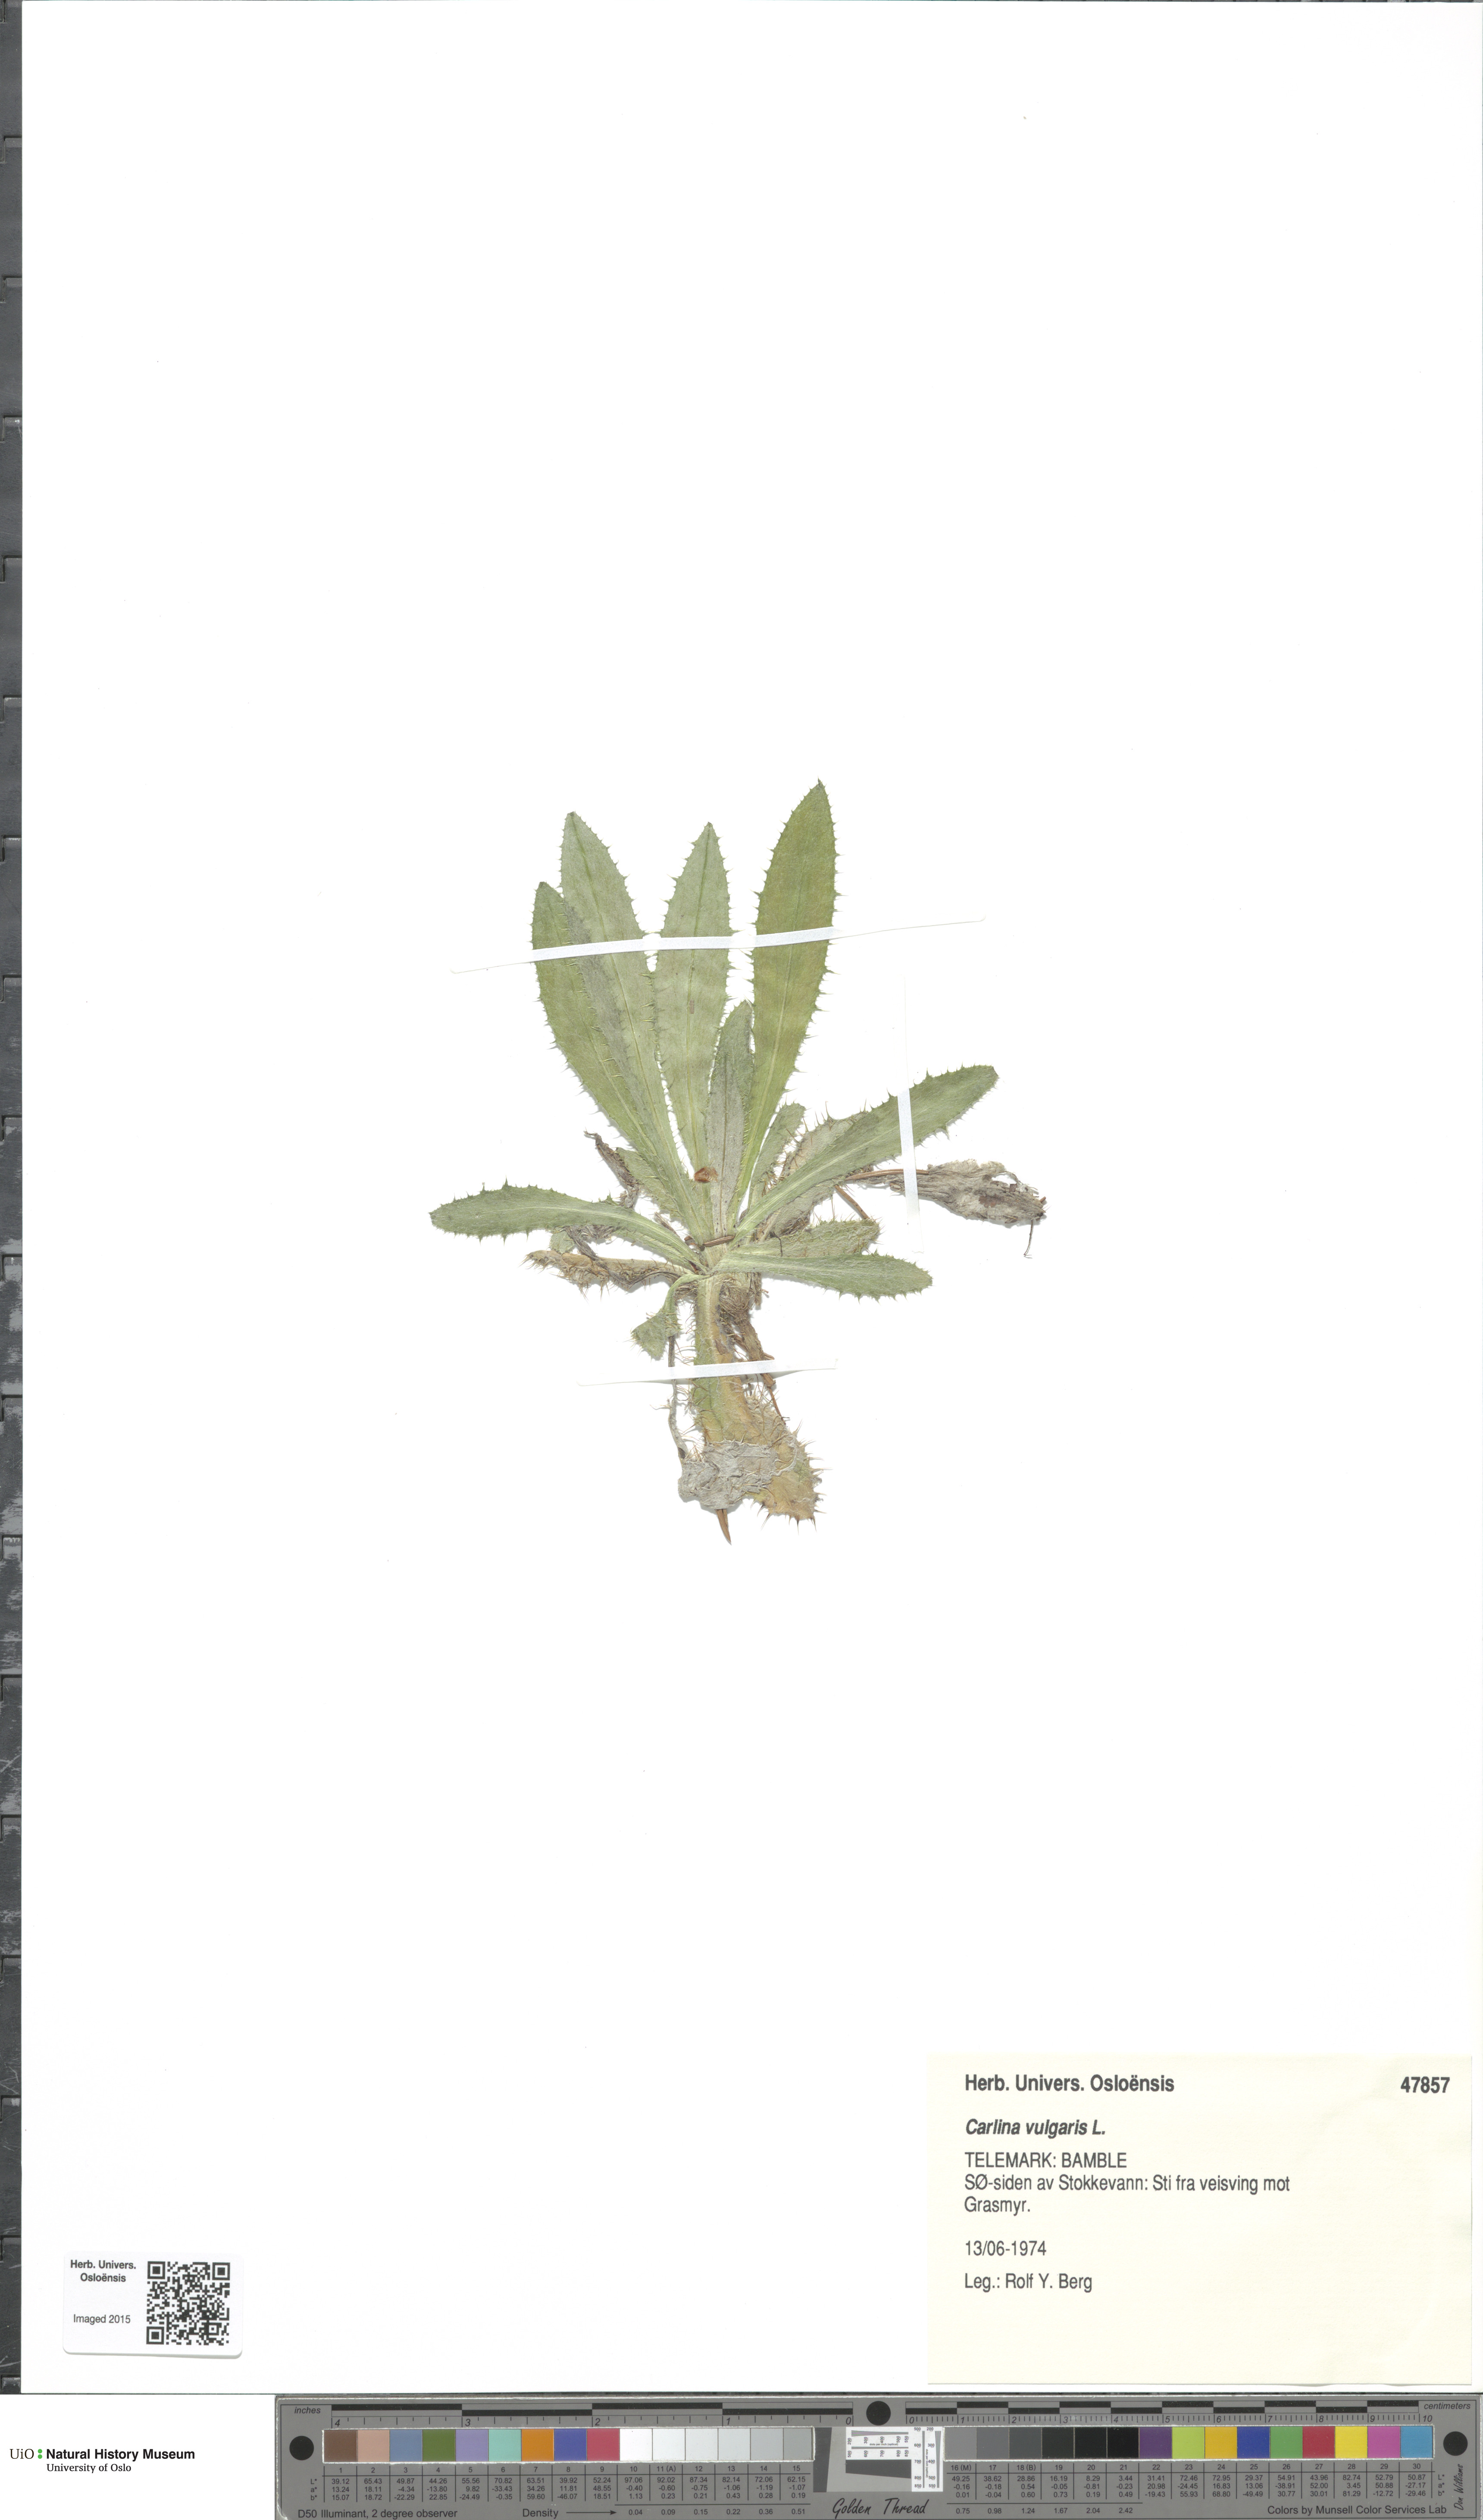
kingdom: Plantae
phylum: Tracheophyta
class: Magnoliopsida
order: Asterales
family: Asteraceae
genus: Carlina
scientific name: Carlina vulgaris
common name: Carline thistle
